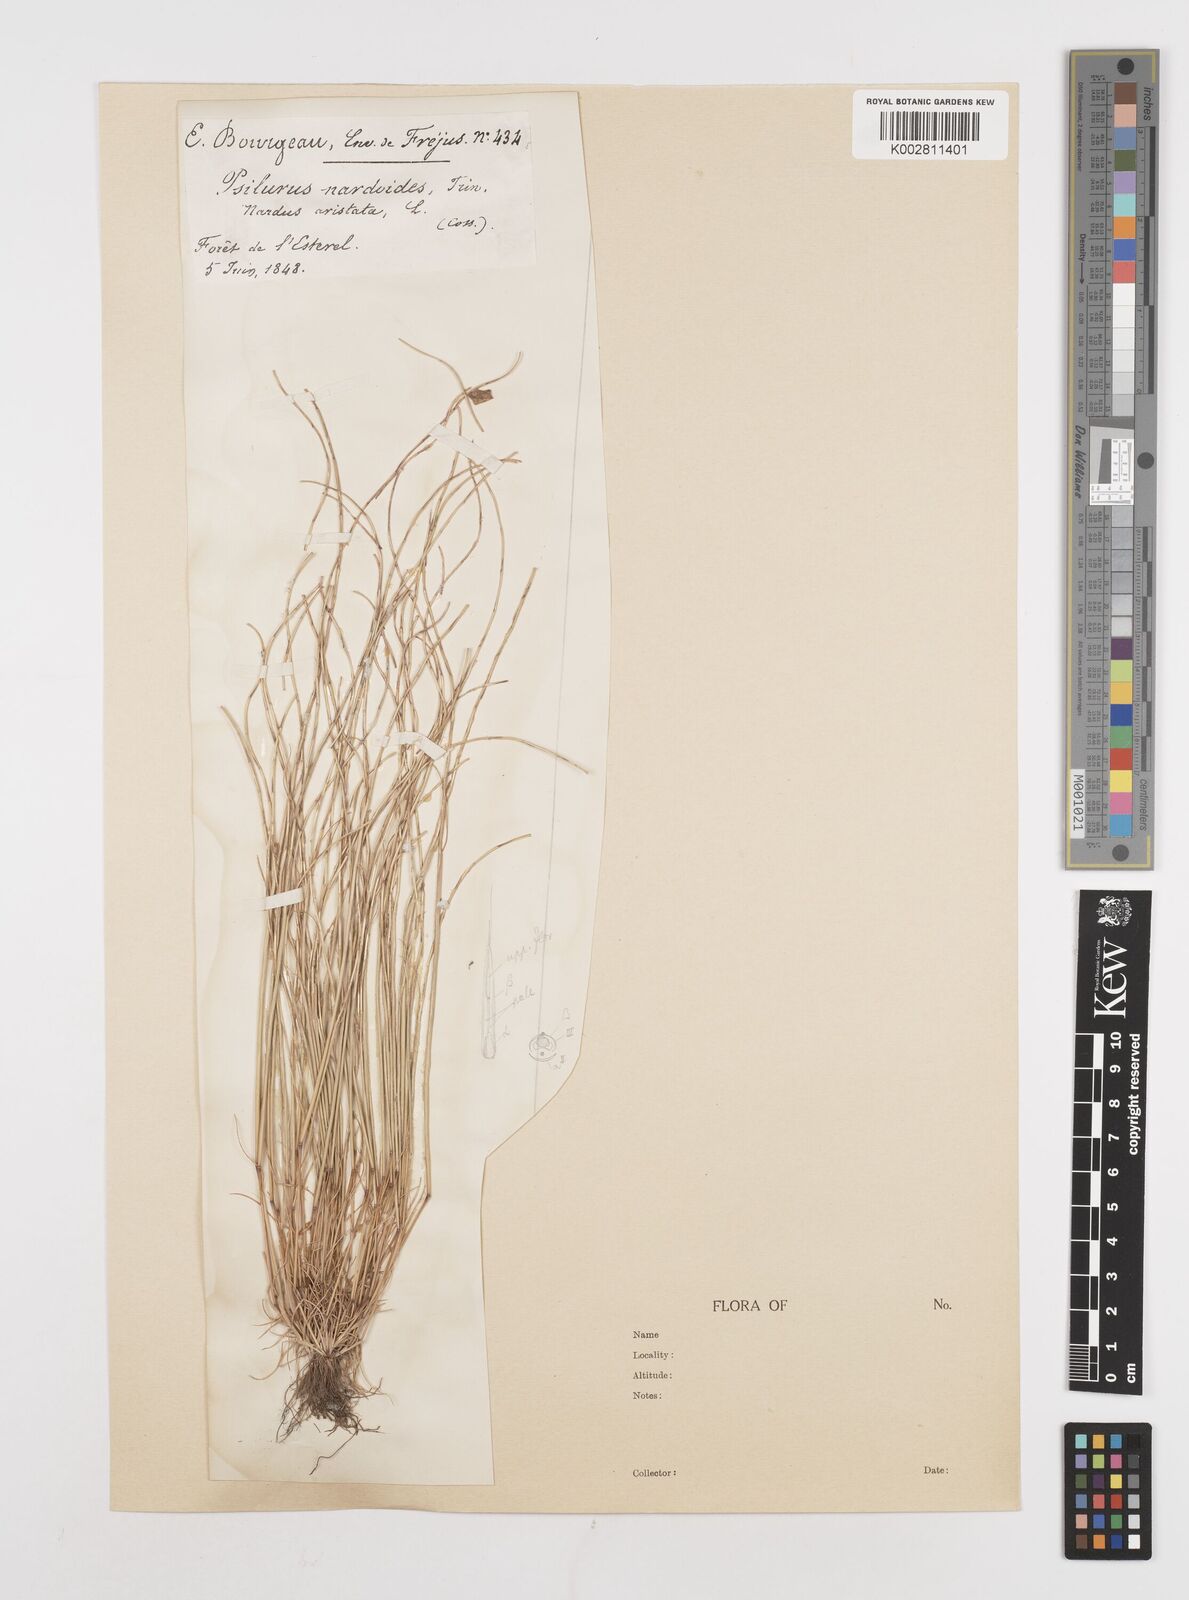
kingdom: Plantae
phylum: Tracheophyta
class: Liliopsida
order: Poales
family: Poaceae
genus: Festuca
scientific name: Festuca incurva
